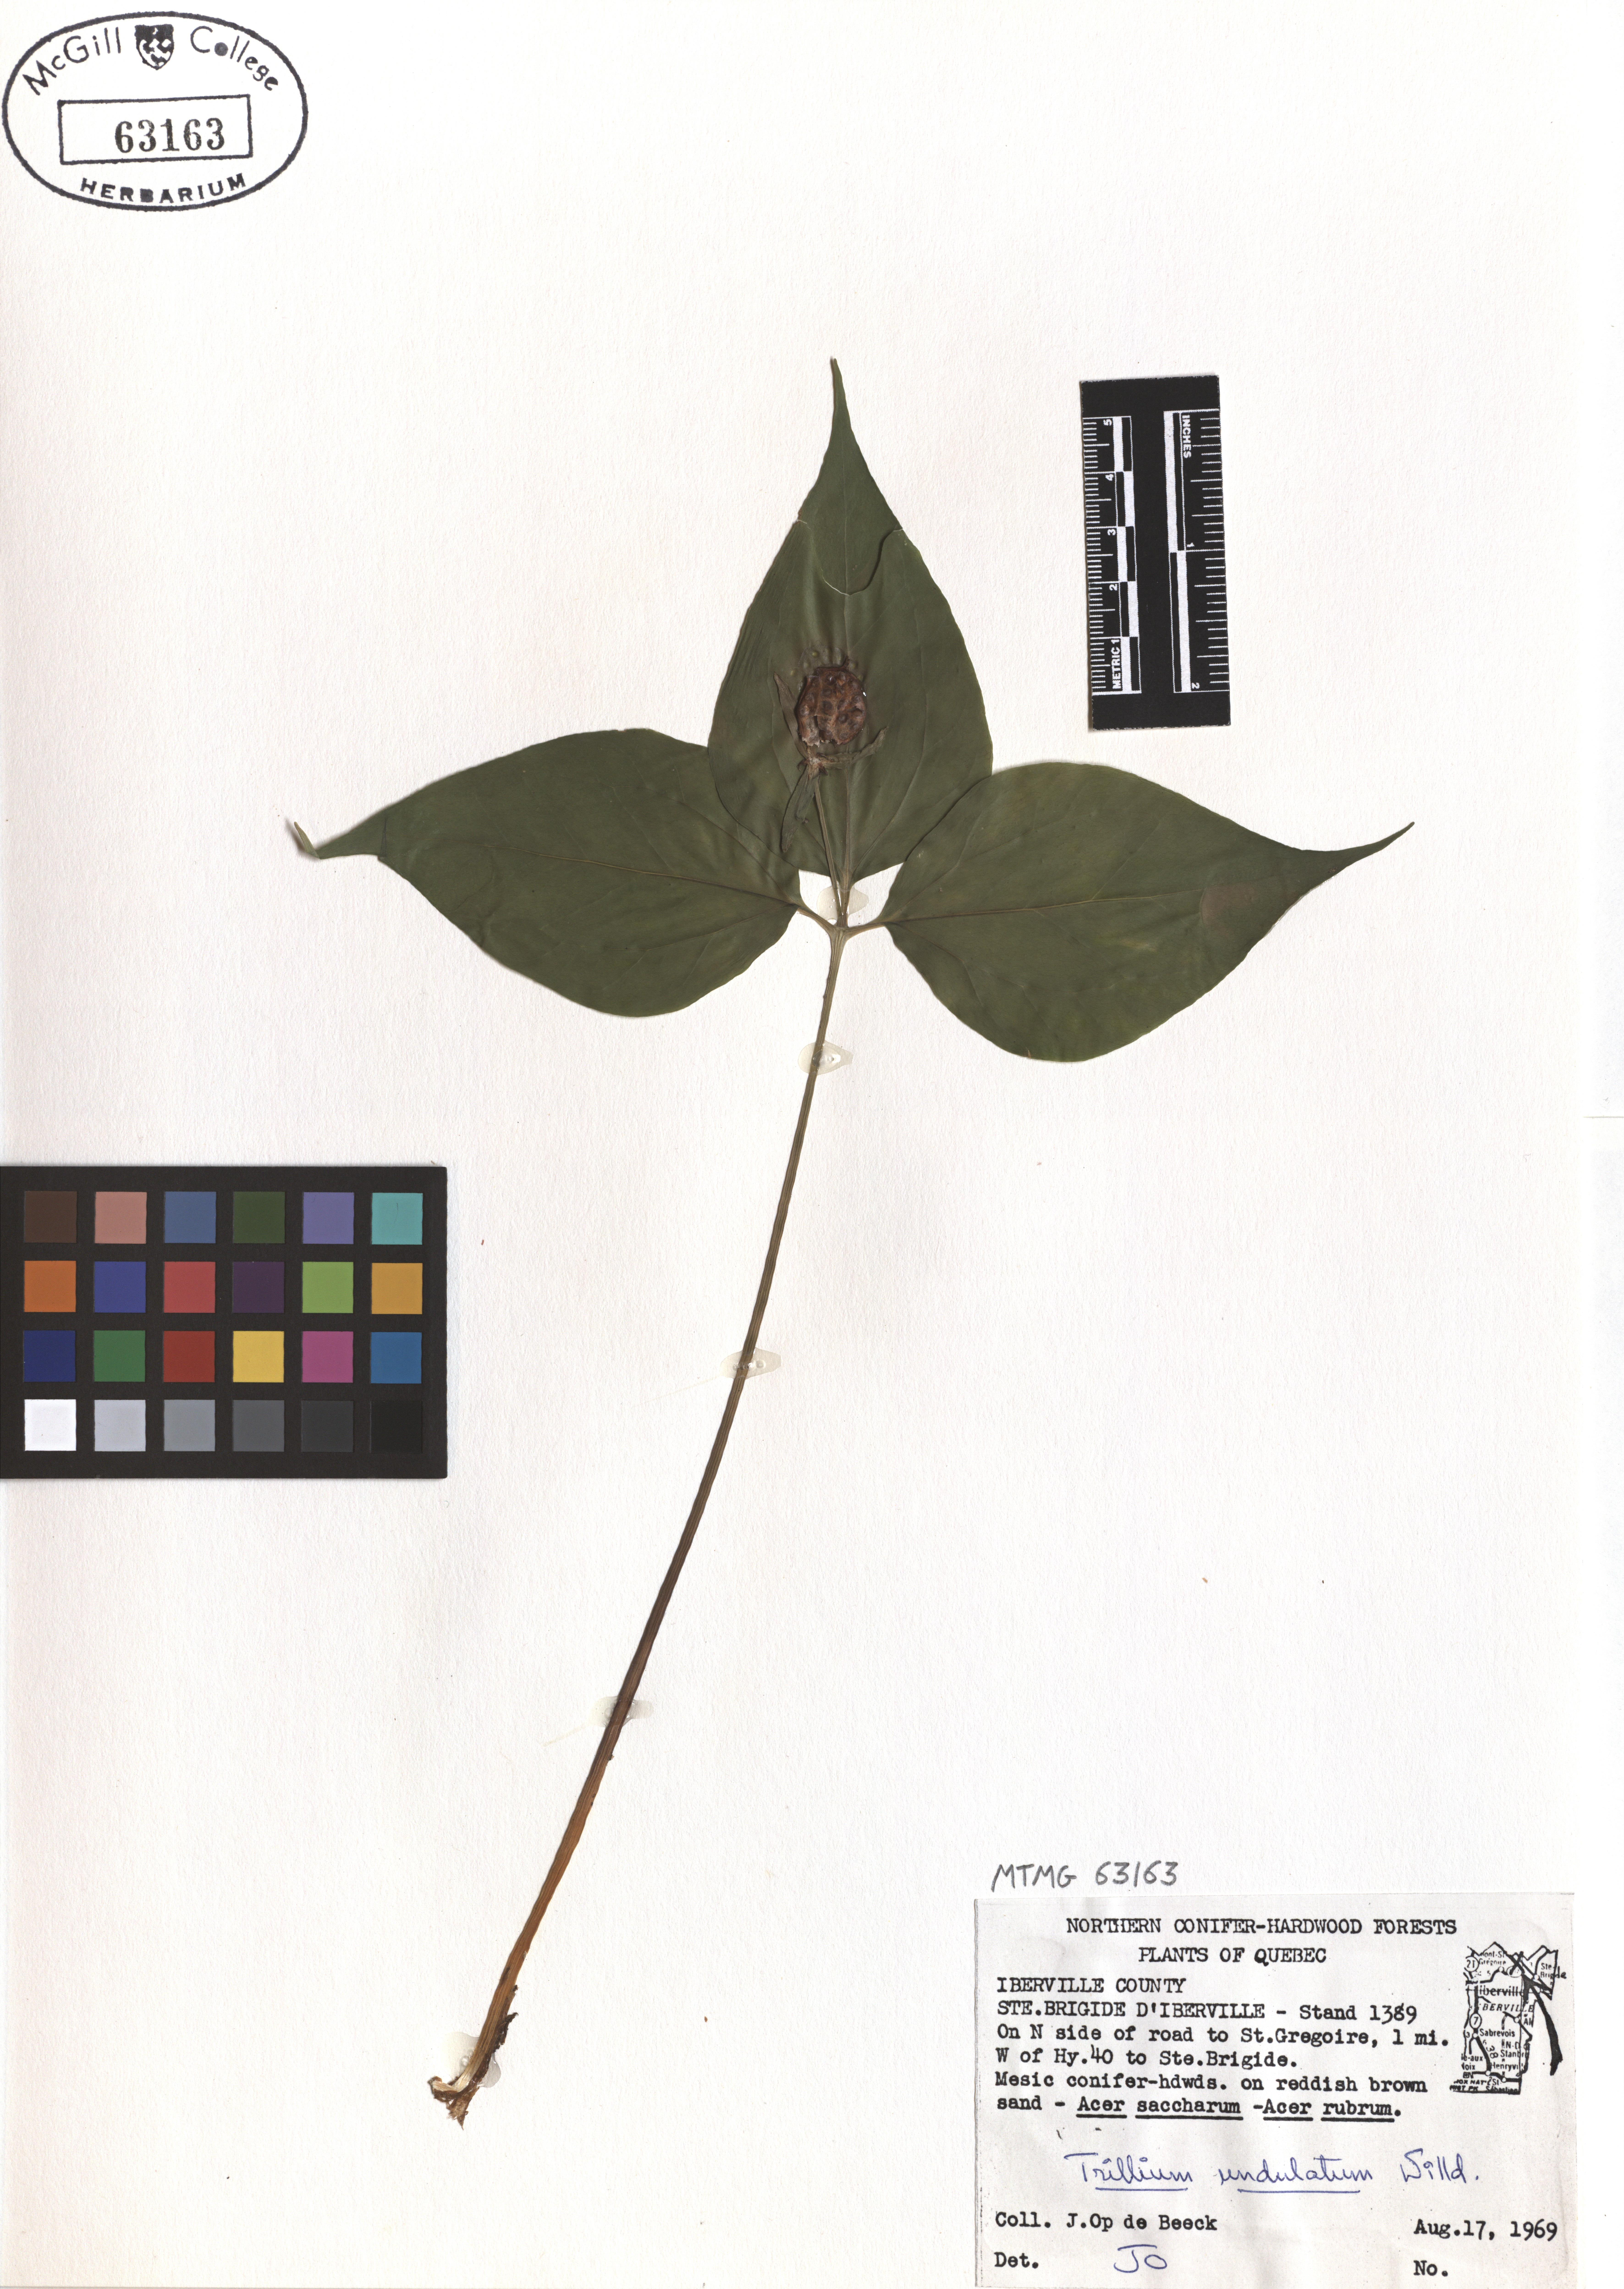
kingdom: Plantae
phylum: Tracheophyta
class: Liliopsida
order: Liliales
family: Melanthiaceae
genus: Trillium
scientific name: Trillium undulatum
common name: Paint trillium
